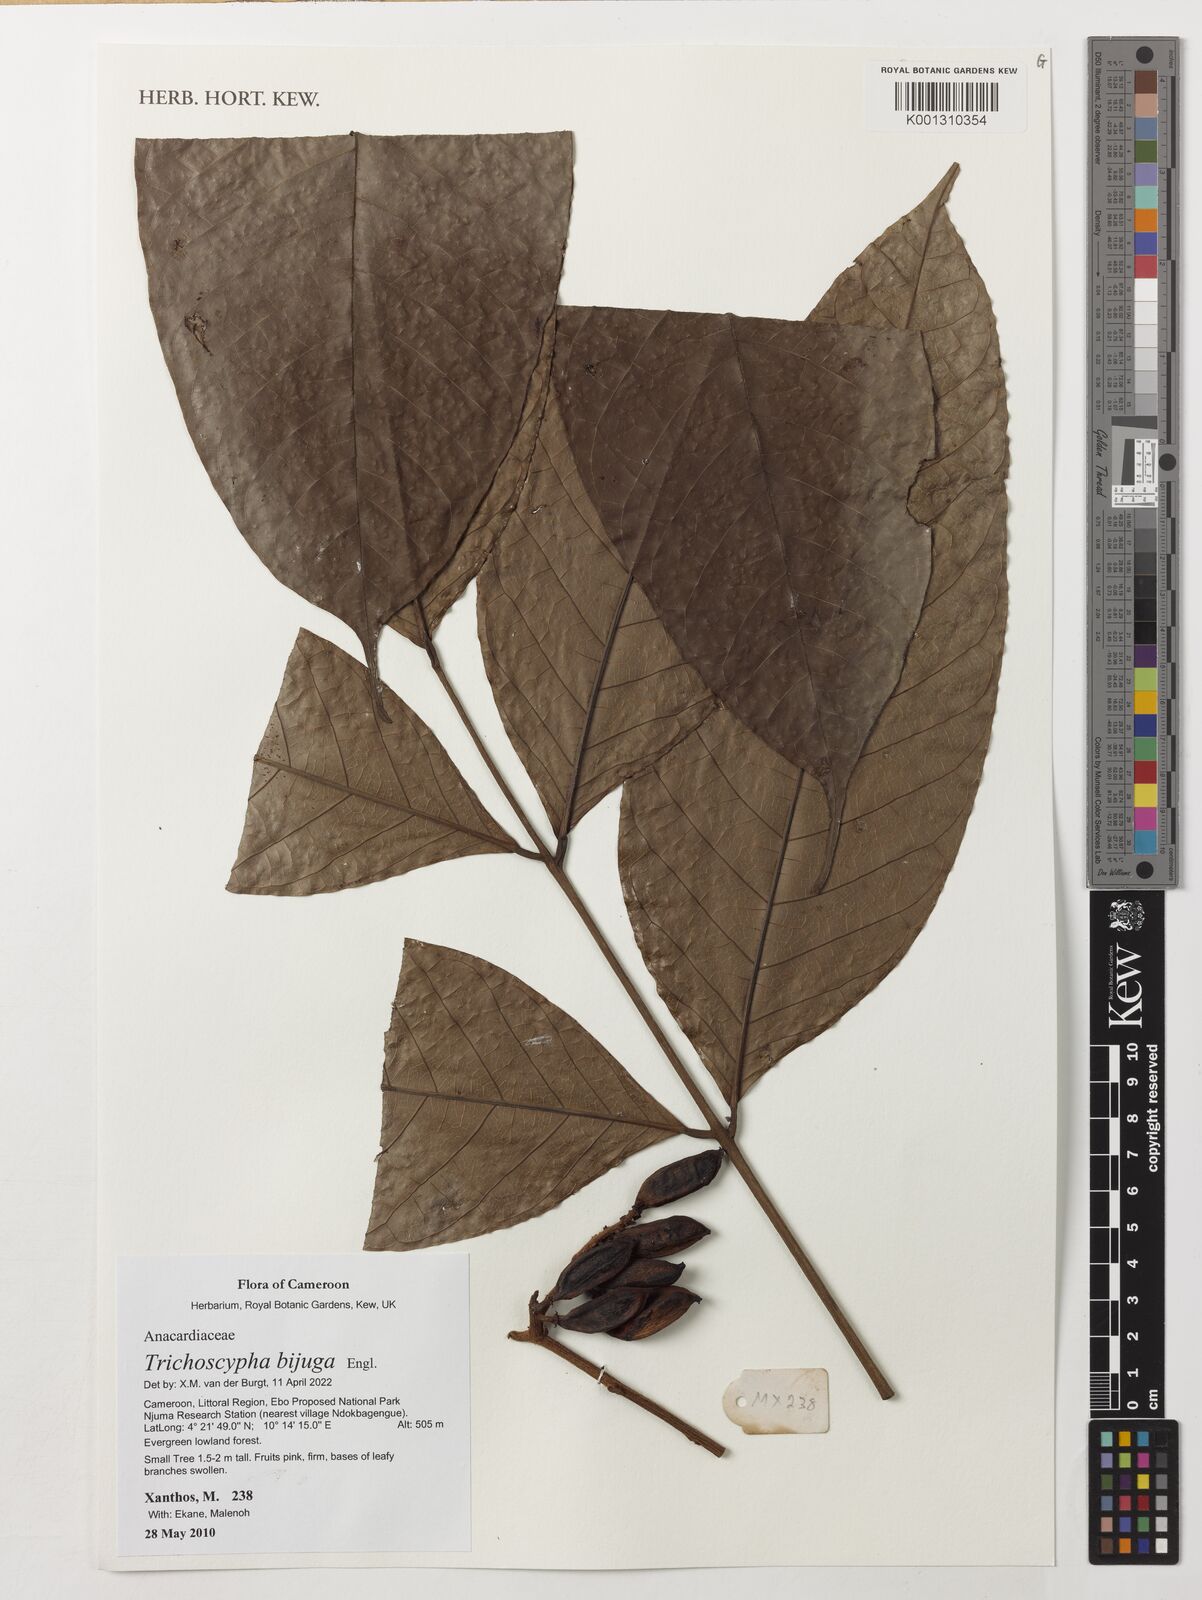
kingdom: Plantae
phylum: Tracheophyta
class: Magnoliopsida
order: Sapindales
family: Anacardiaceae
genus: Trichoscypha
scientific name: Trichoscypha bijuga
